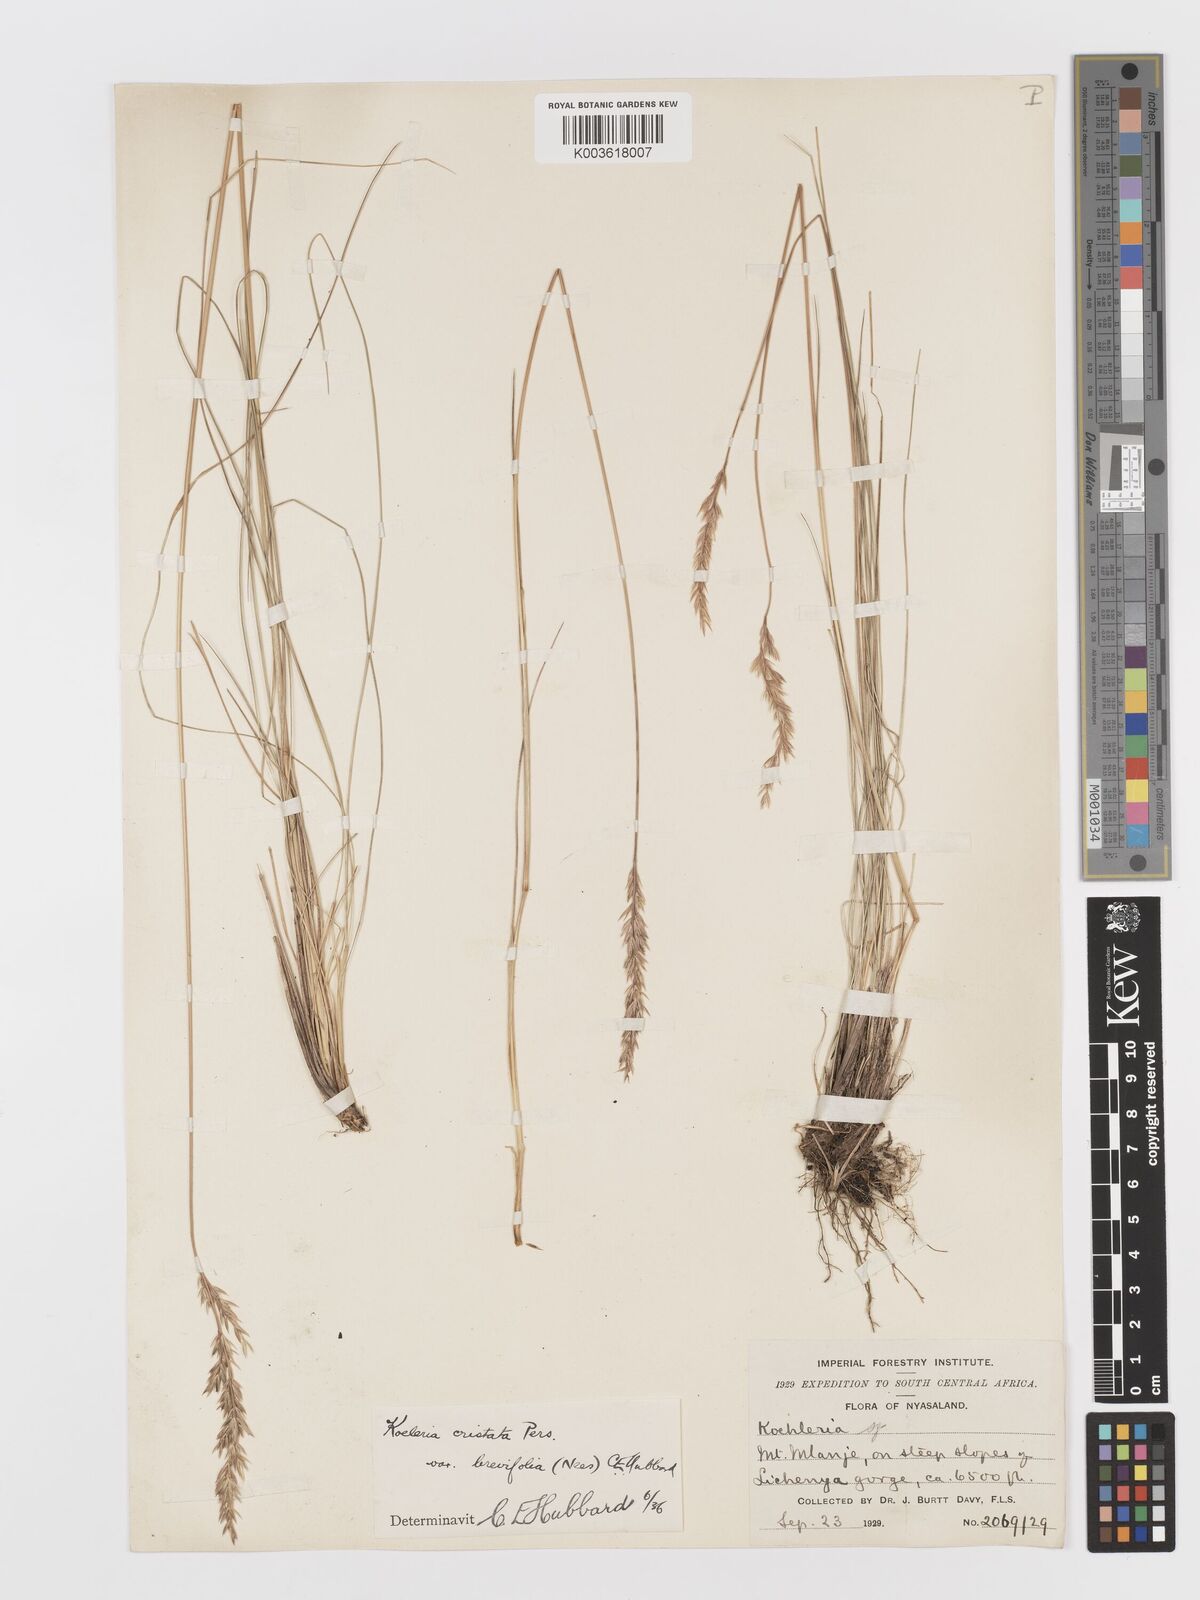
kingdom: Plantae
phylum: Tracheophyta
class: Liliopsida
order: Poales
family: Poaceae
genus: Koeleria
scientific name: Koeleria capensis
